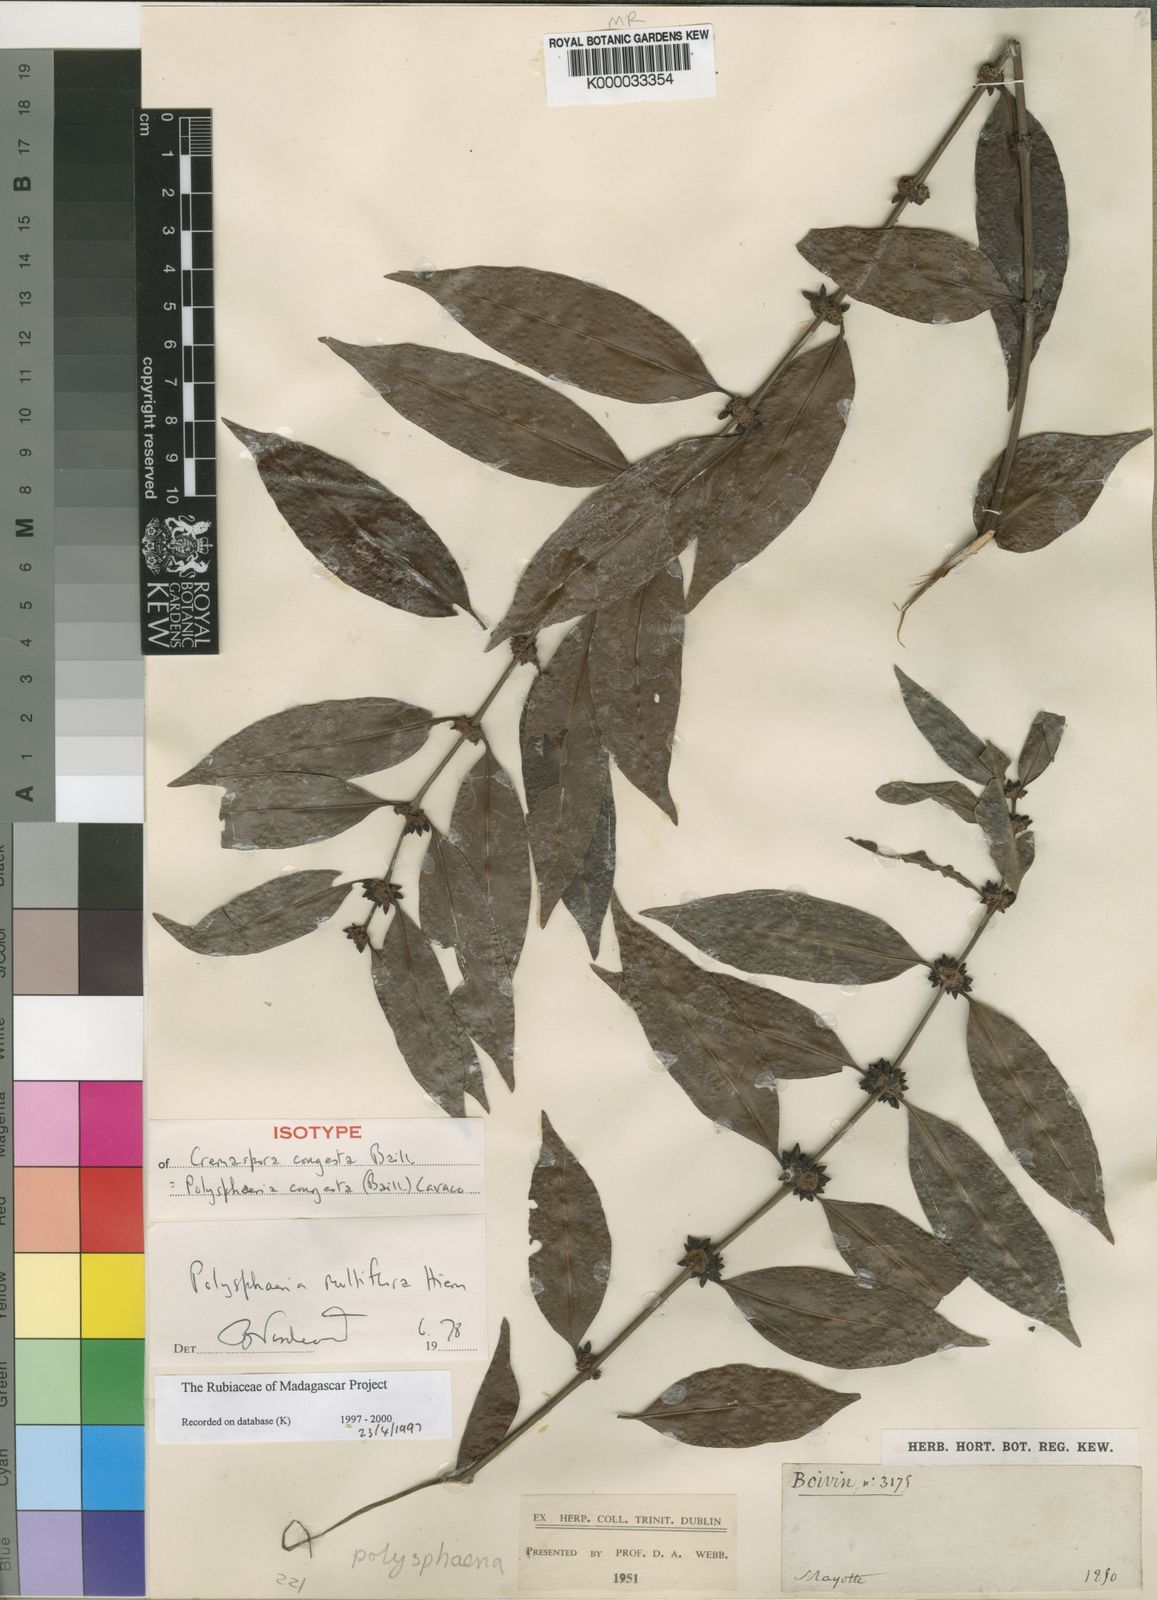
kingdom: Plantae
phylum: Tracheophyta
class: Magnoliopsida
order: Gentianales
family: Rubiaceae
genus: Polysphaeria
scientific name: Polysphaeria multiflora
